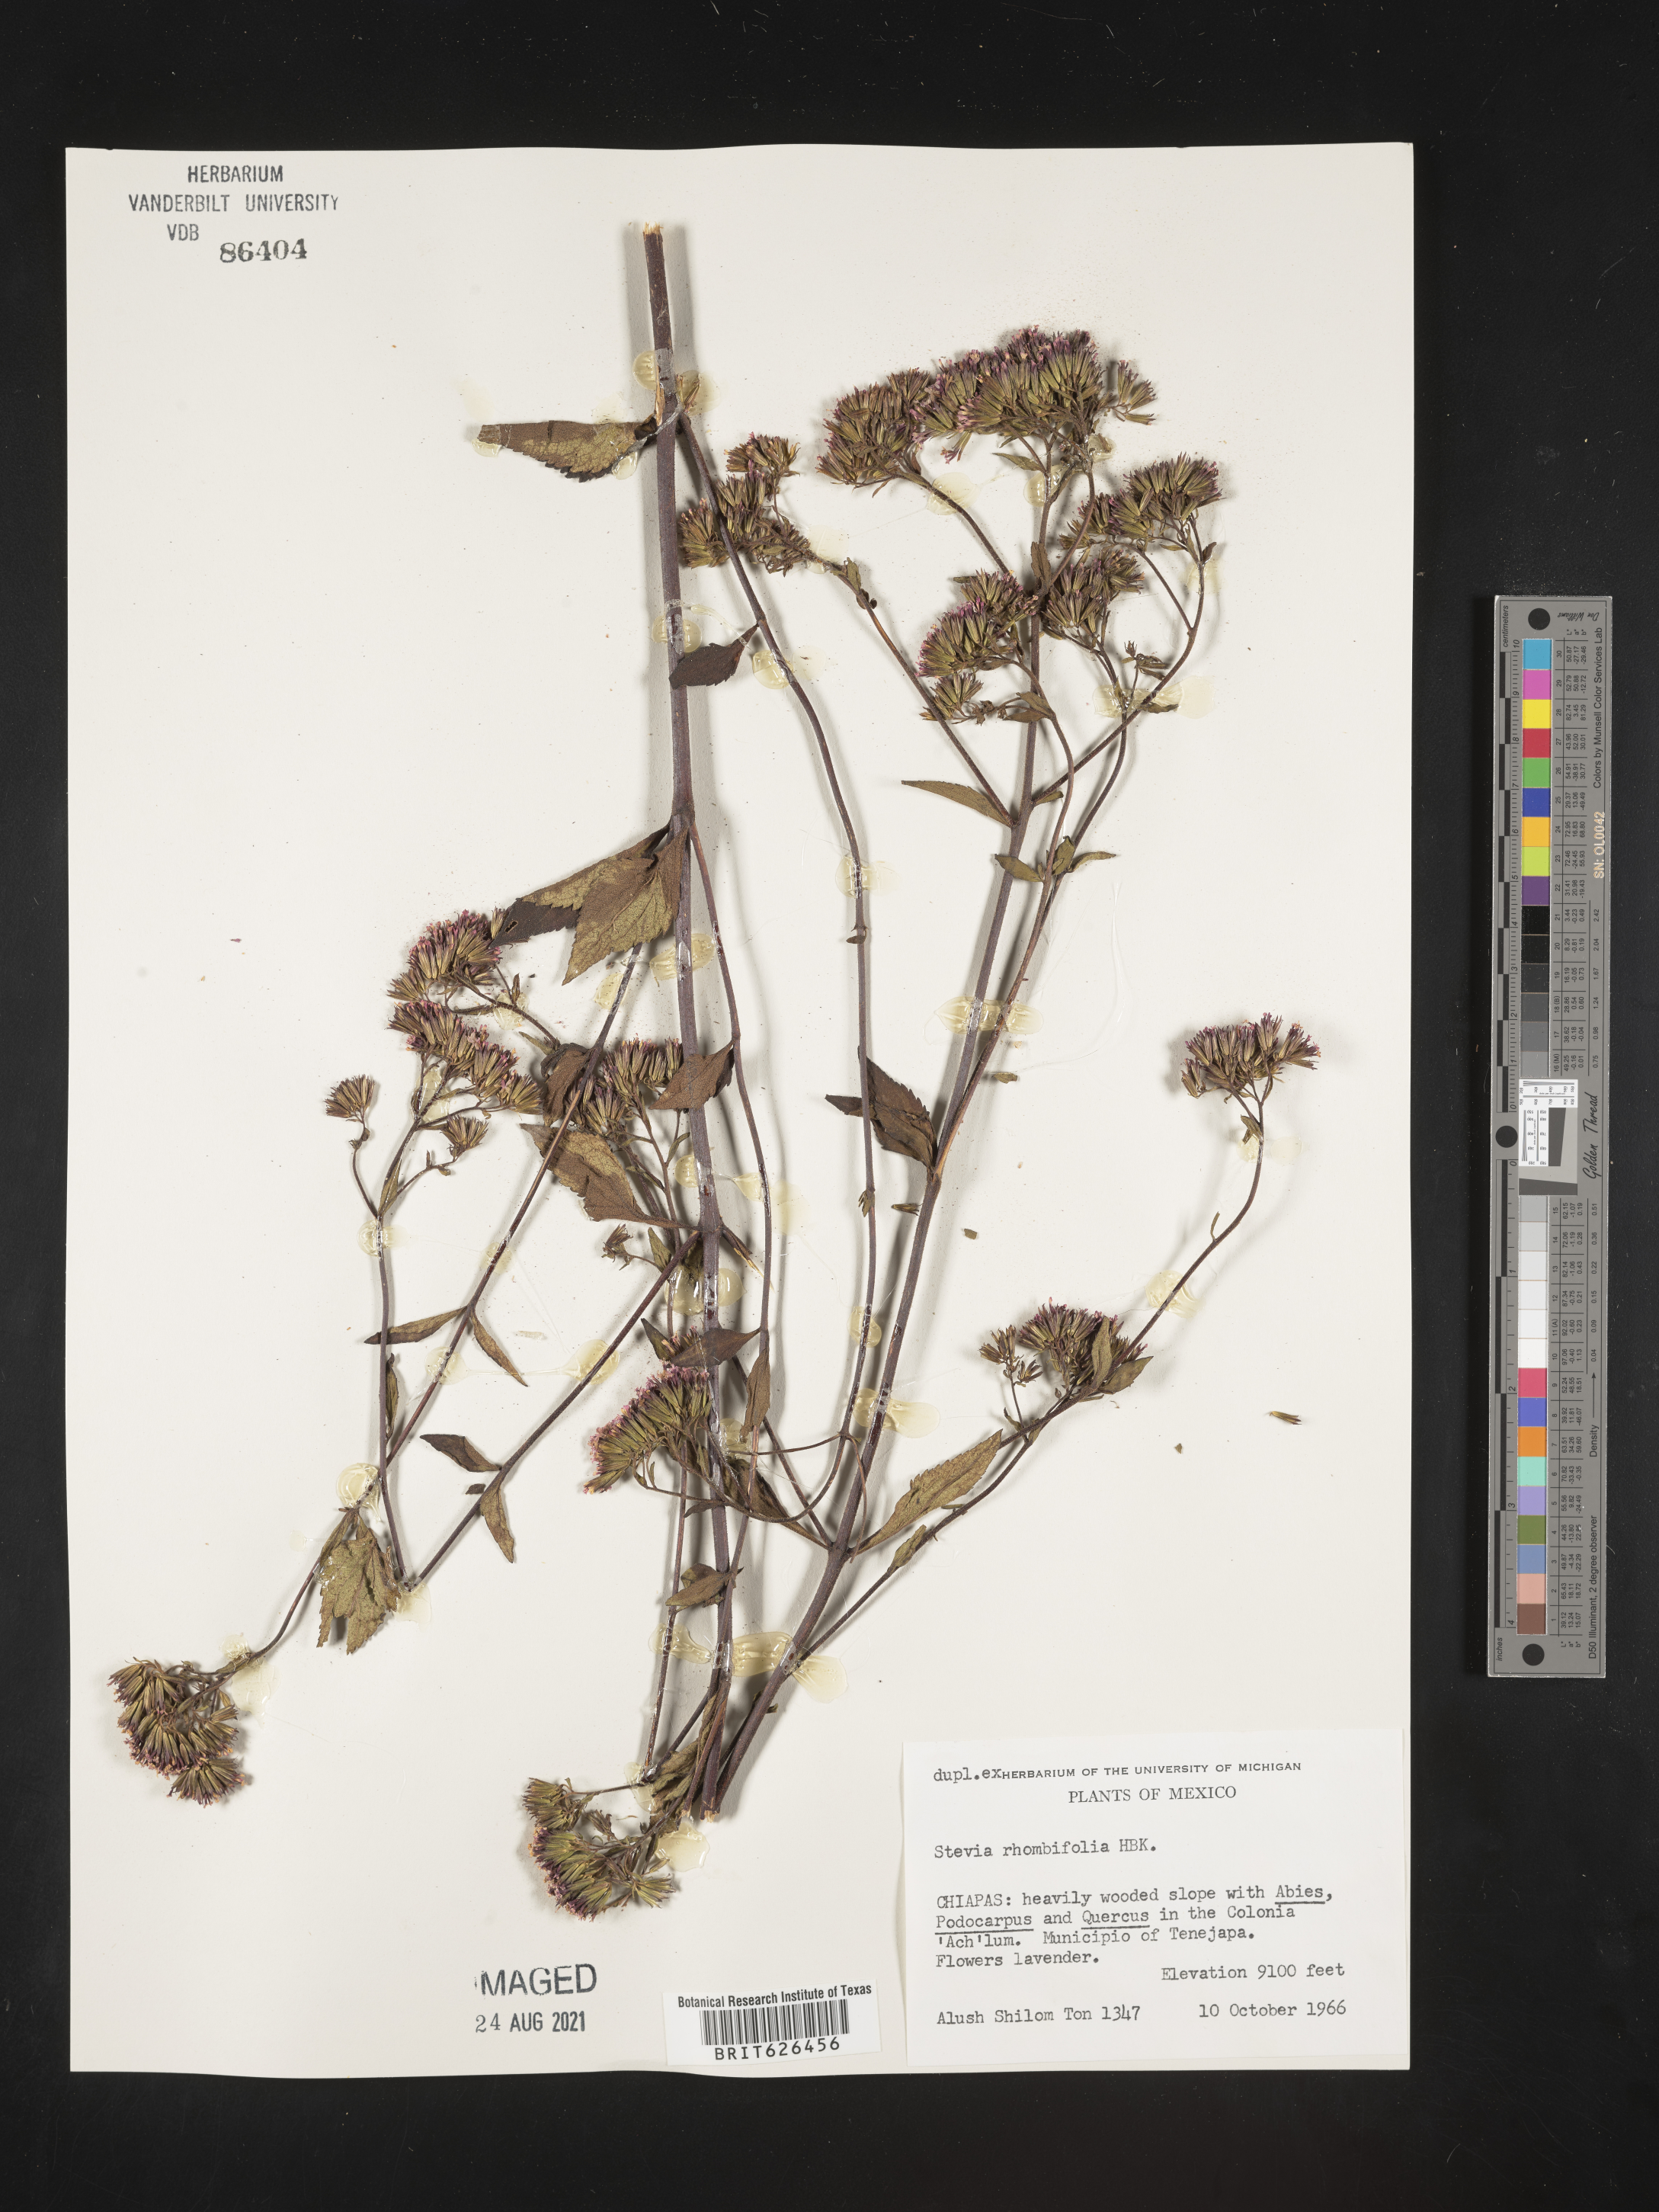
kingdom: Plantae
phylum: Tracheophyta
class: Magnoliopsida
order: Asterales
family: Asteraceae
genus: Stevia
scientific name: Stevia
